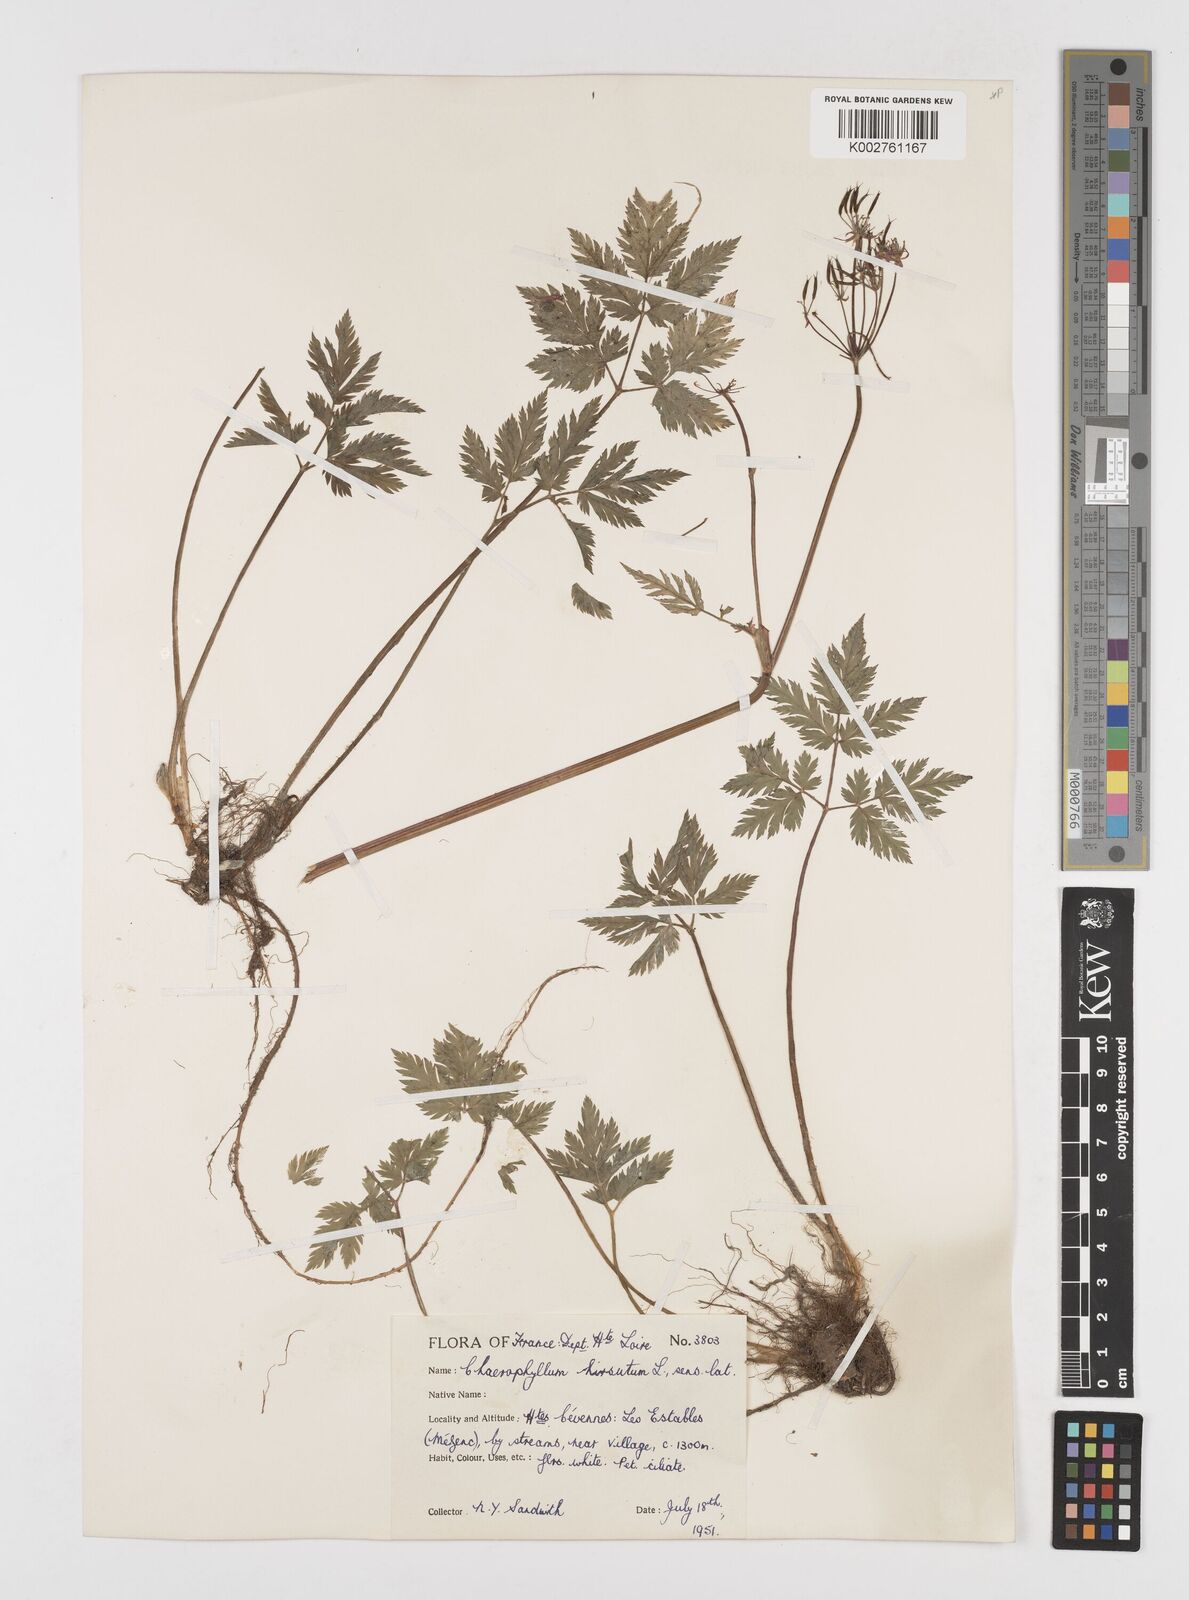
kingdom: Plantae
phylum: Tracheophyta
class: Magnoliopsida
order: Apiales
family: Apiaceae
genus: Chaerophyllum
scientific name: Chaerophyllum hirsutum
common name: Hairy chervil
